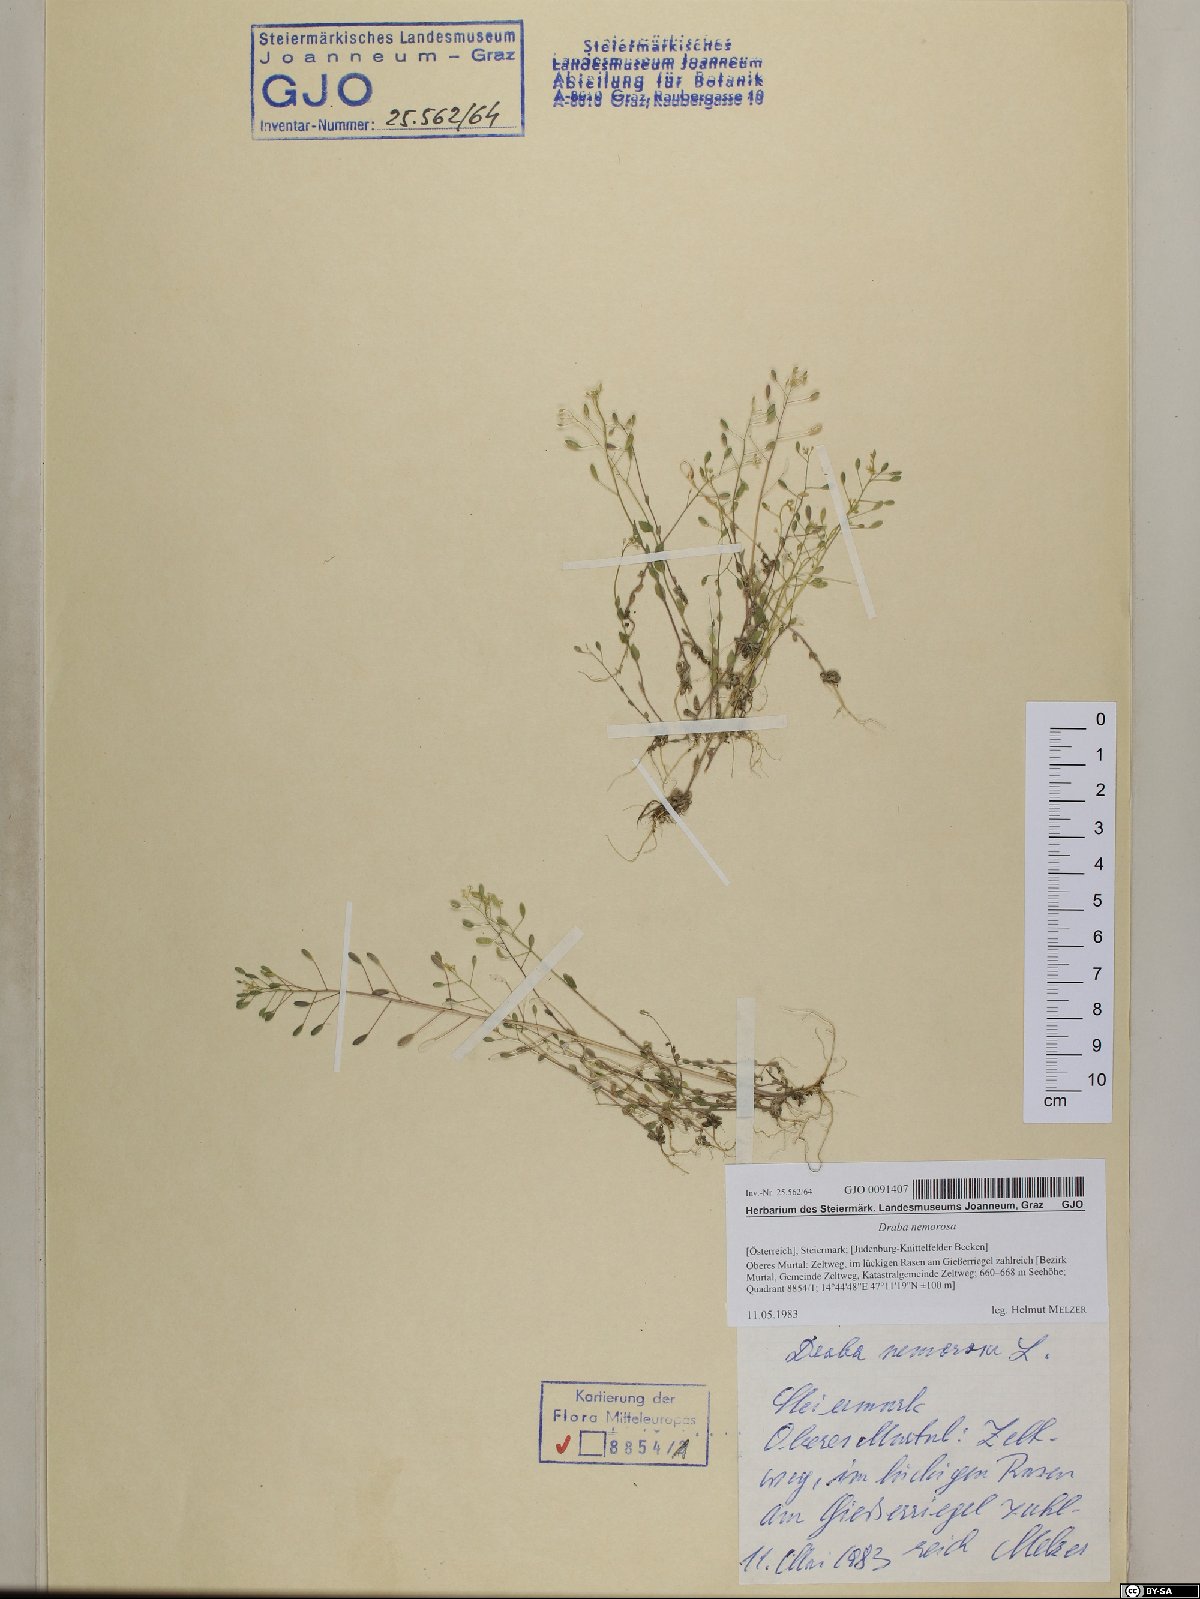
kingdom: Plantae
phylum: Tracheophyta
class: Magnoliopsida
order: Brassicales
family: Brassicaceae
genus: Draba
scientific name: Draba nemorosa
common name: Wood whitlow-grass
